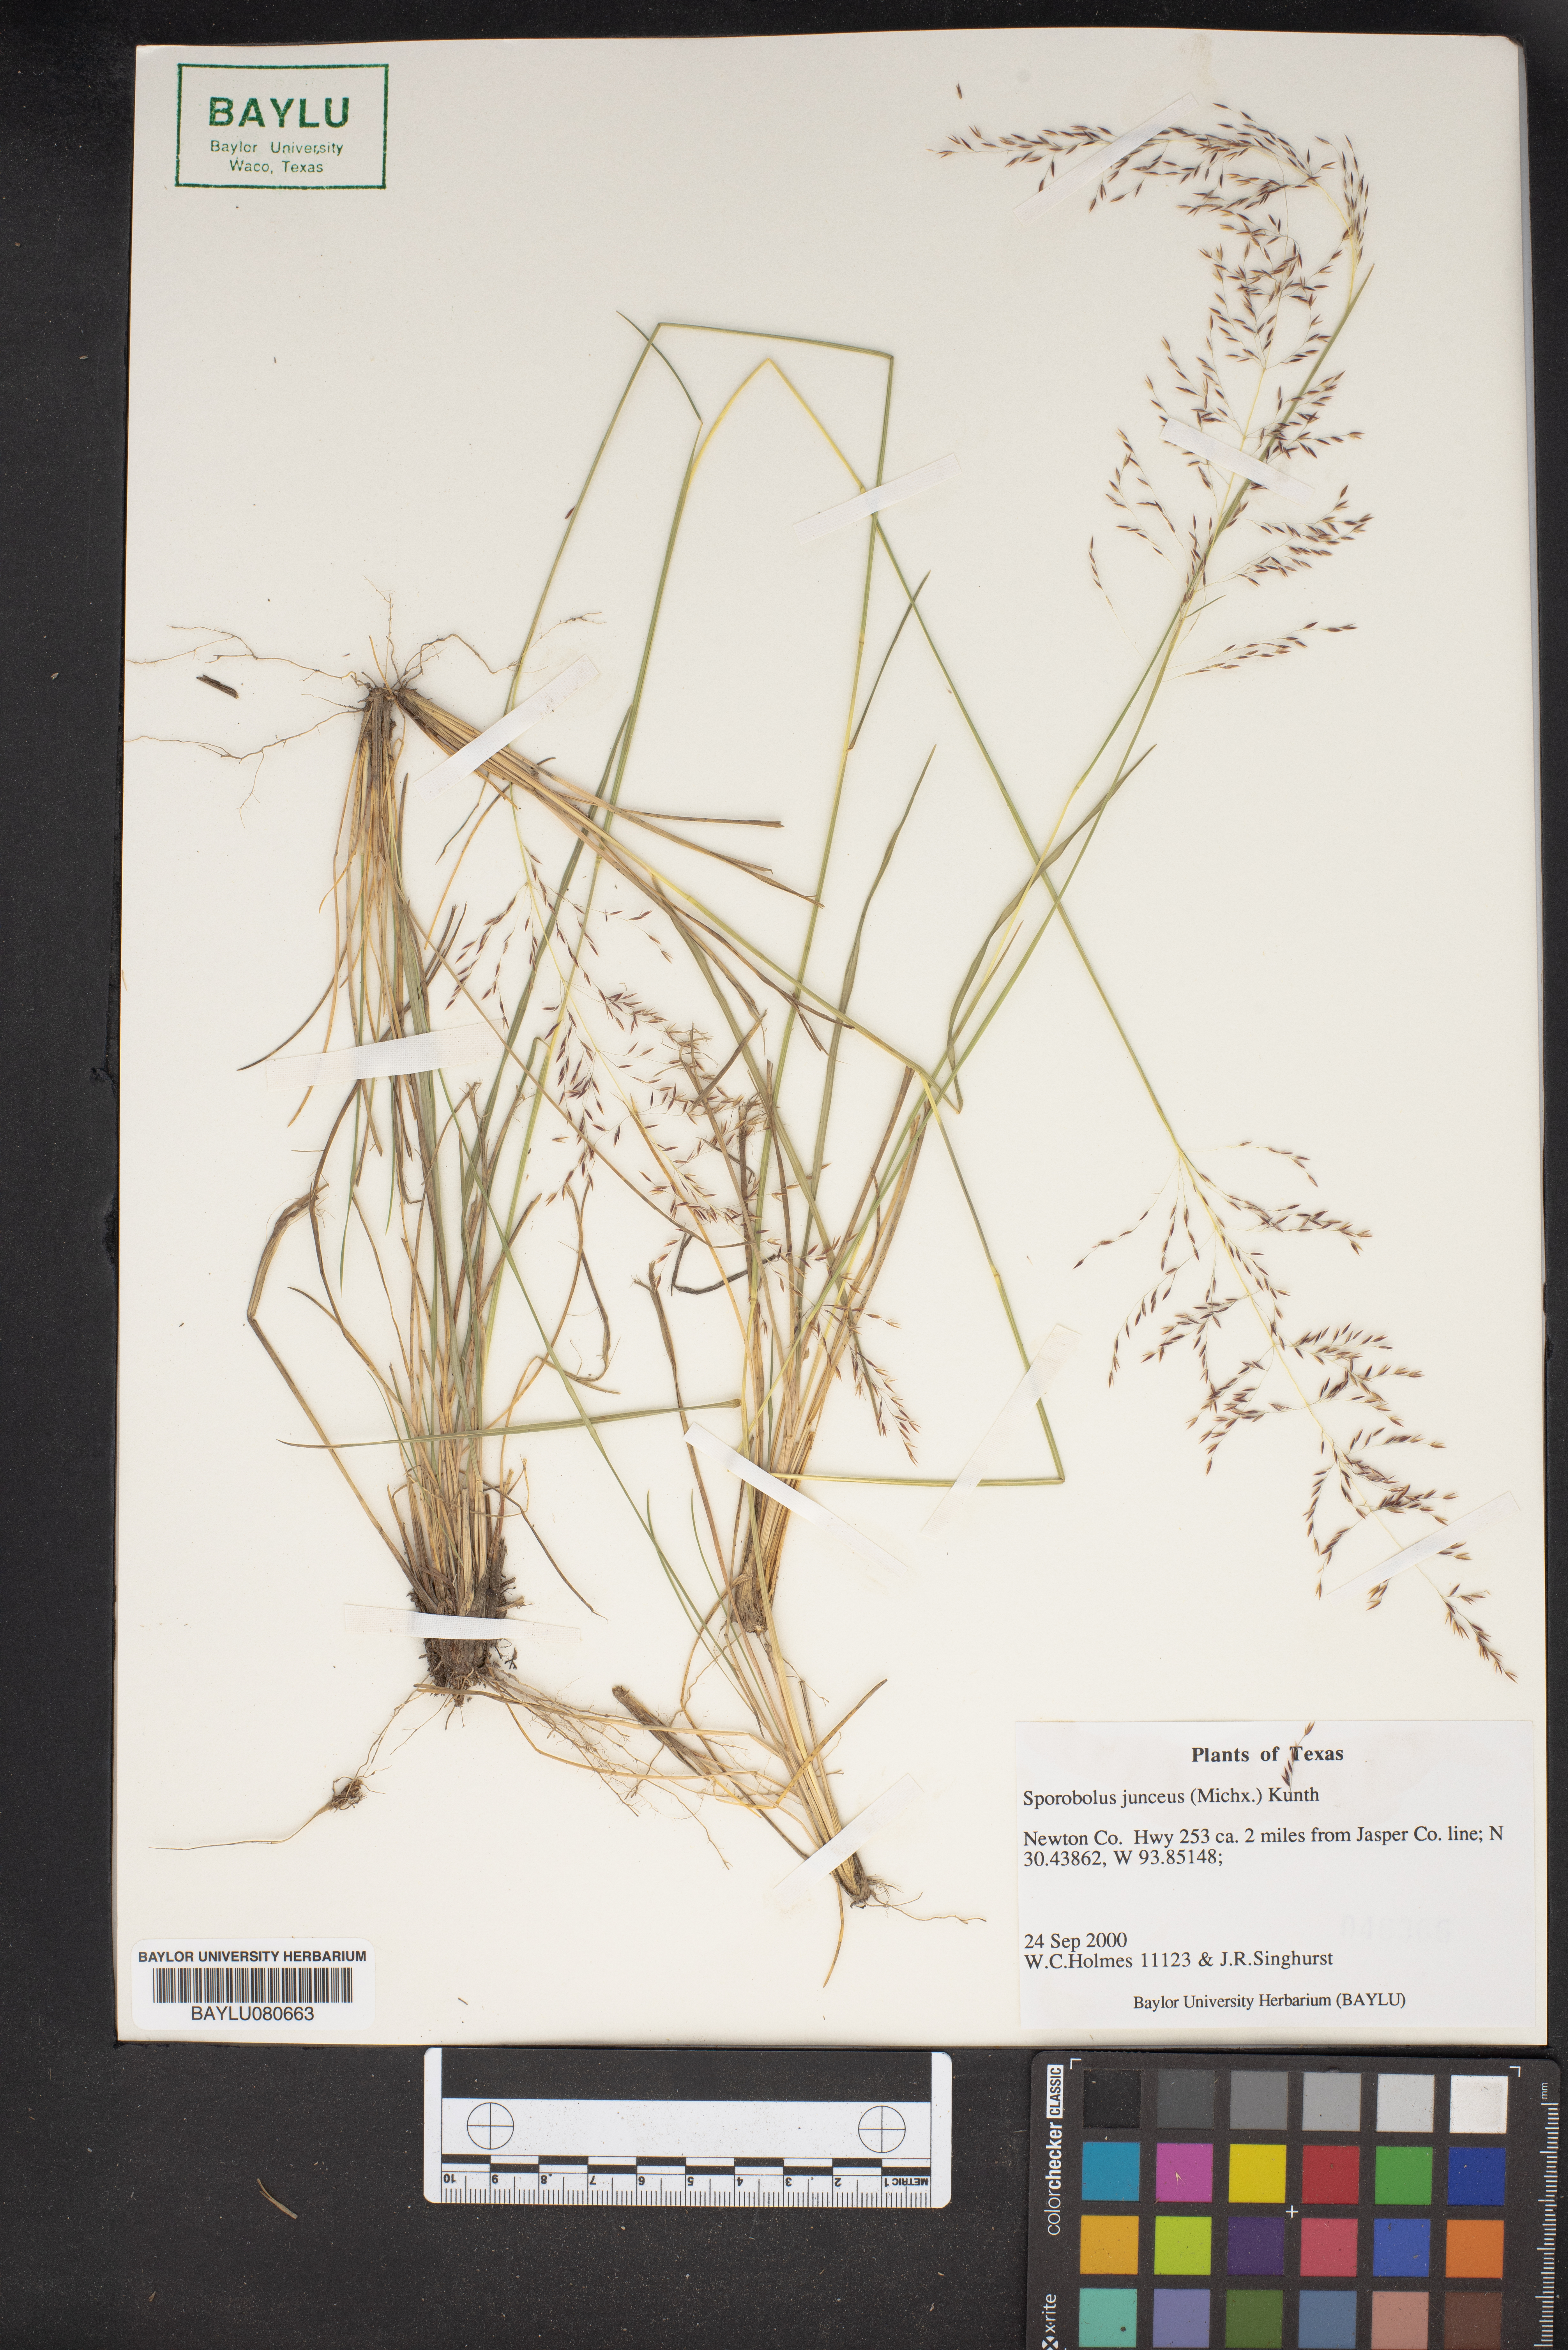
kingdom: Plantae
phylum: Tracheophyta
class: Liliopsida
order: Poales
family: Poaceae
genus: Sporobolus
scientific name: Sporobolus junceus
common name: Lizard grass
